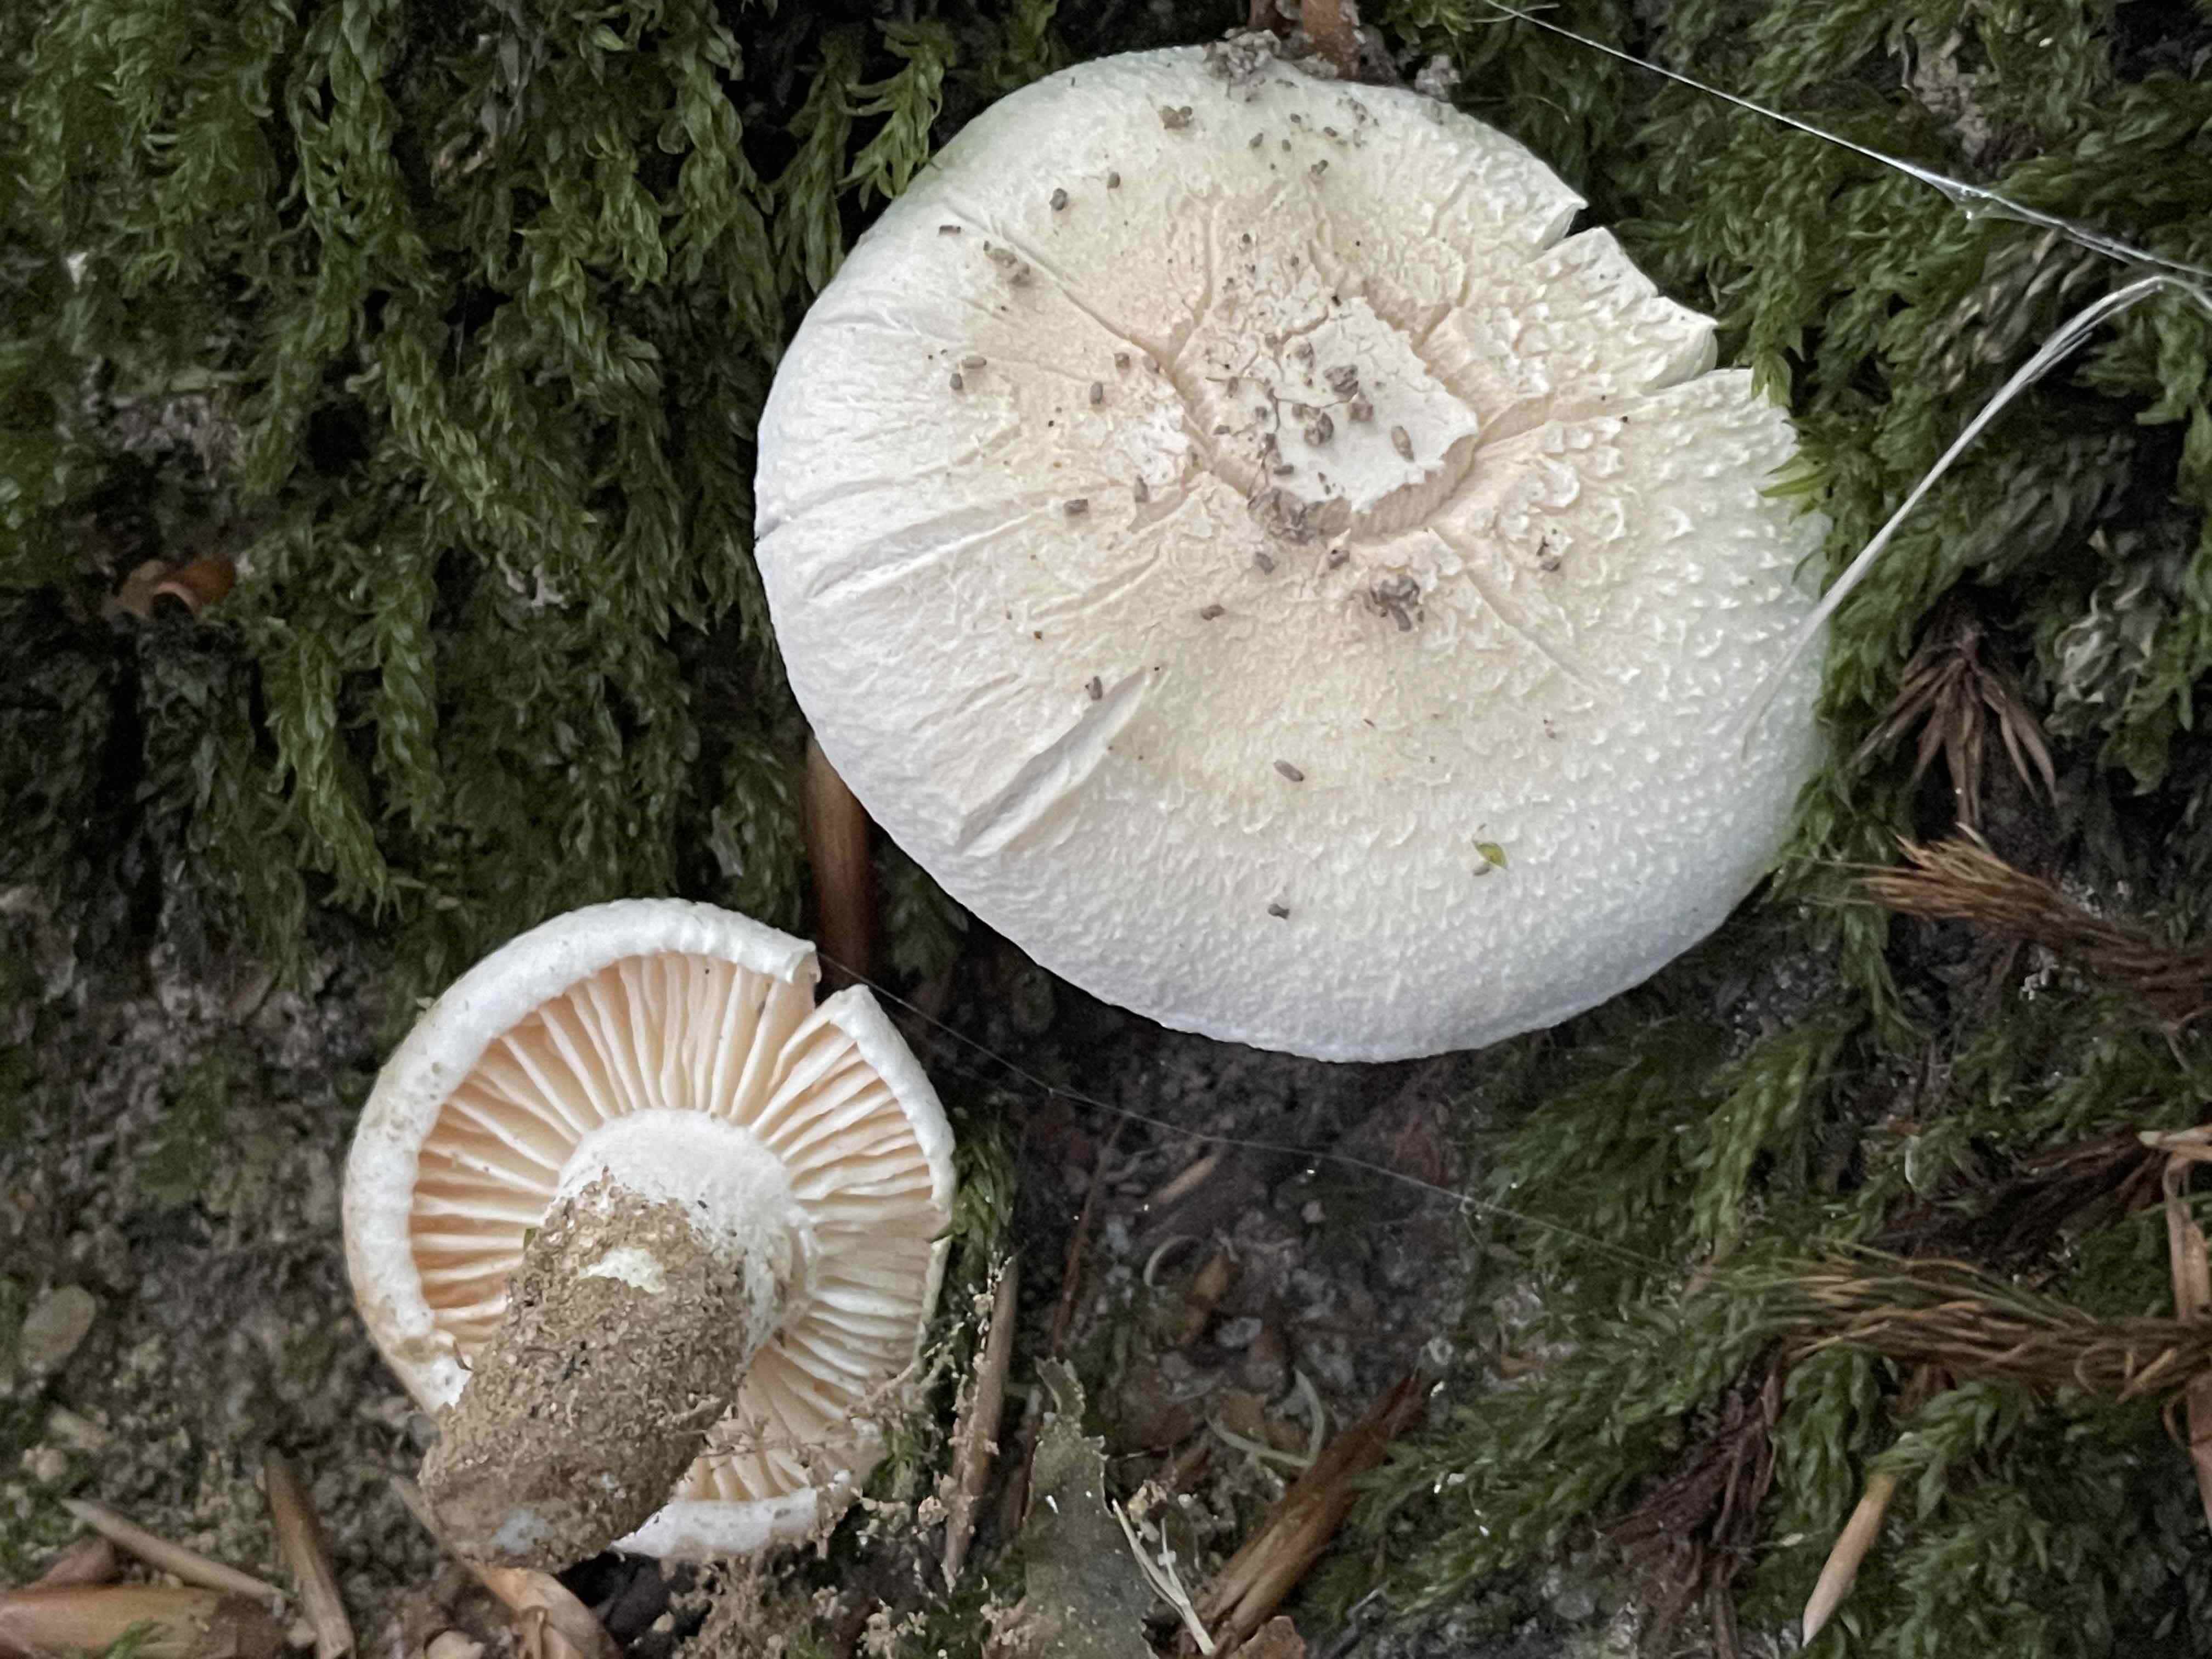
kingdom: Fungi
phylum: Basidiomycota
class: Agaricomycetes
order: Agaricales
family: Hygrophoraceae
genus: Hygrophorus
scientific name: Hygrophorus penarius
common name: spiselig sneglehat
